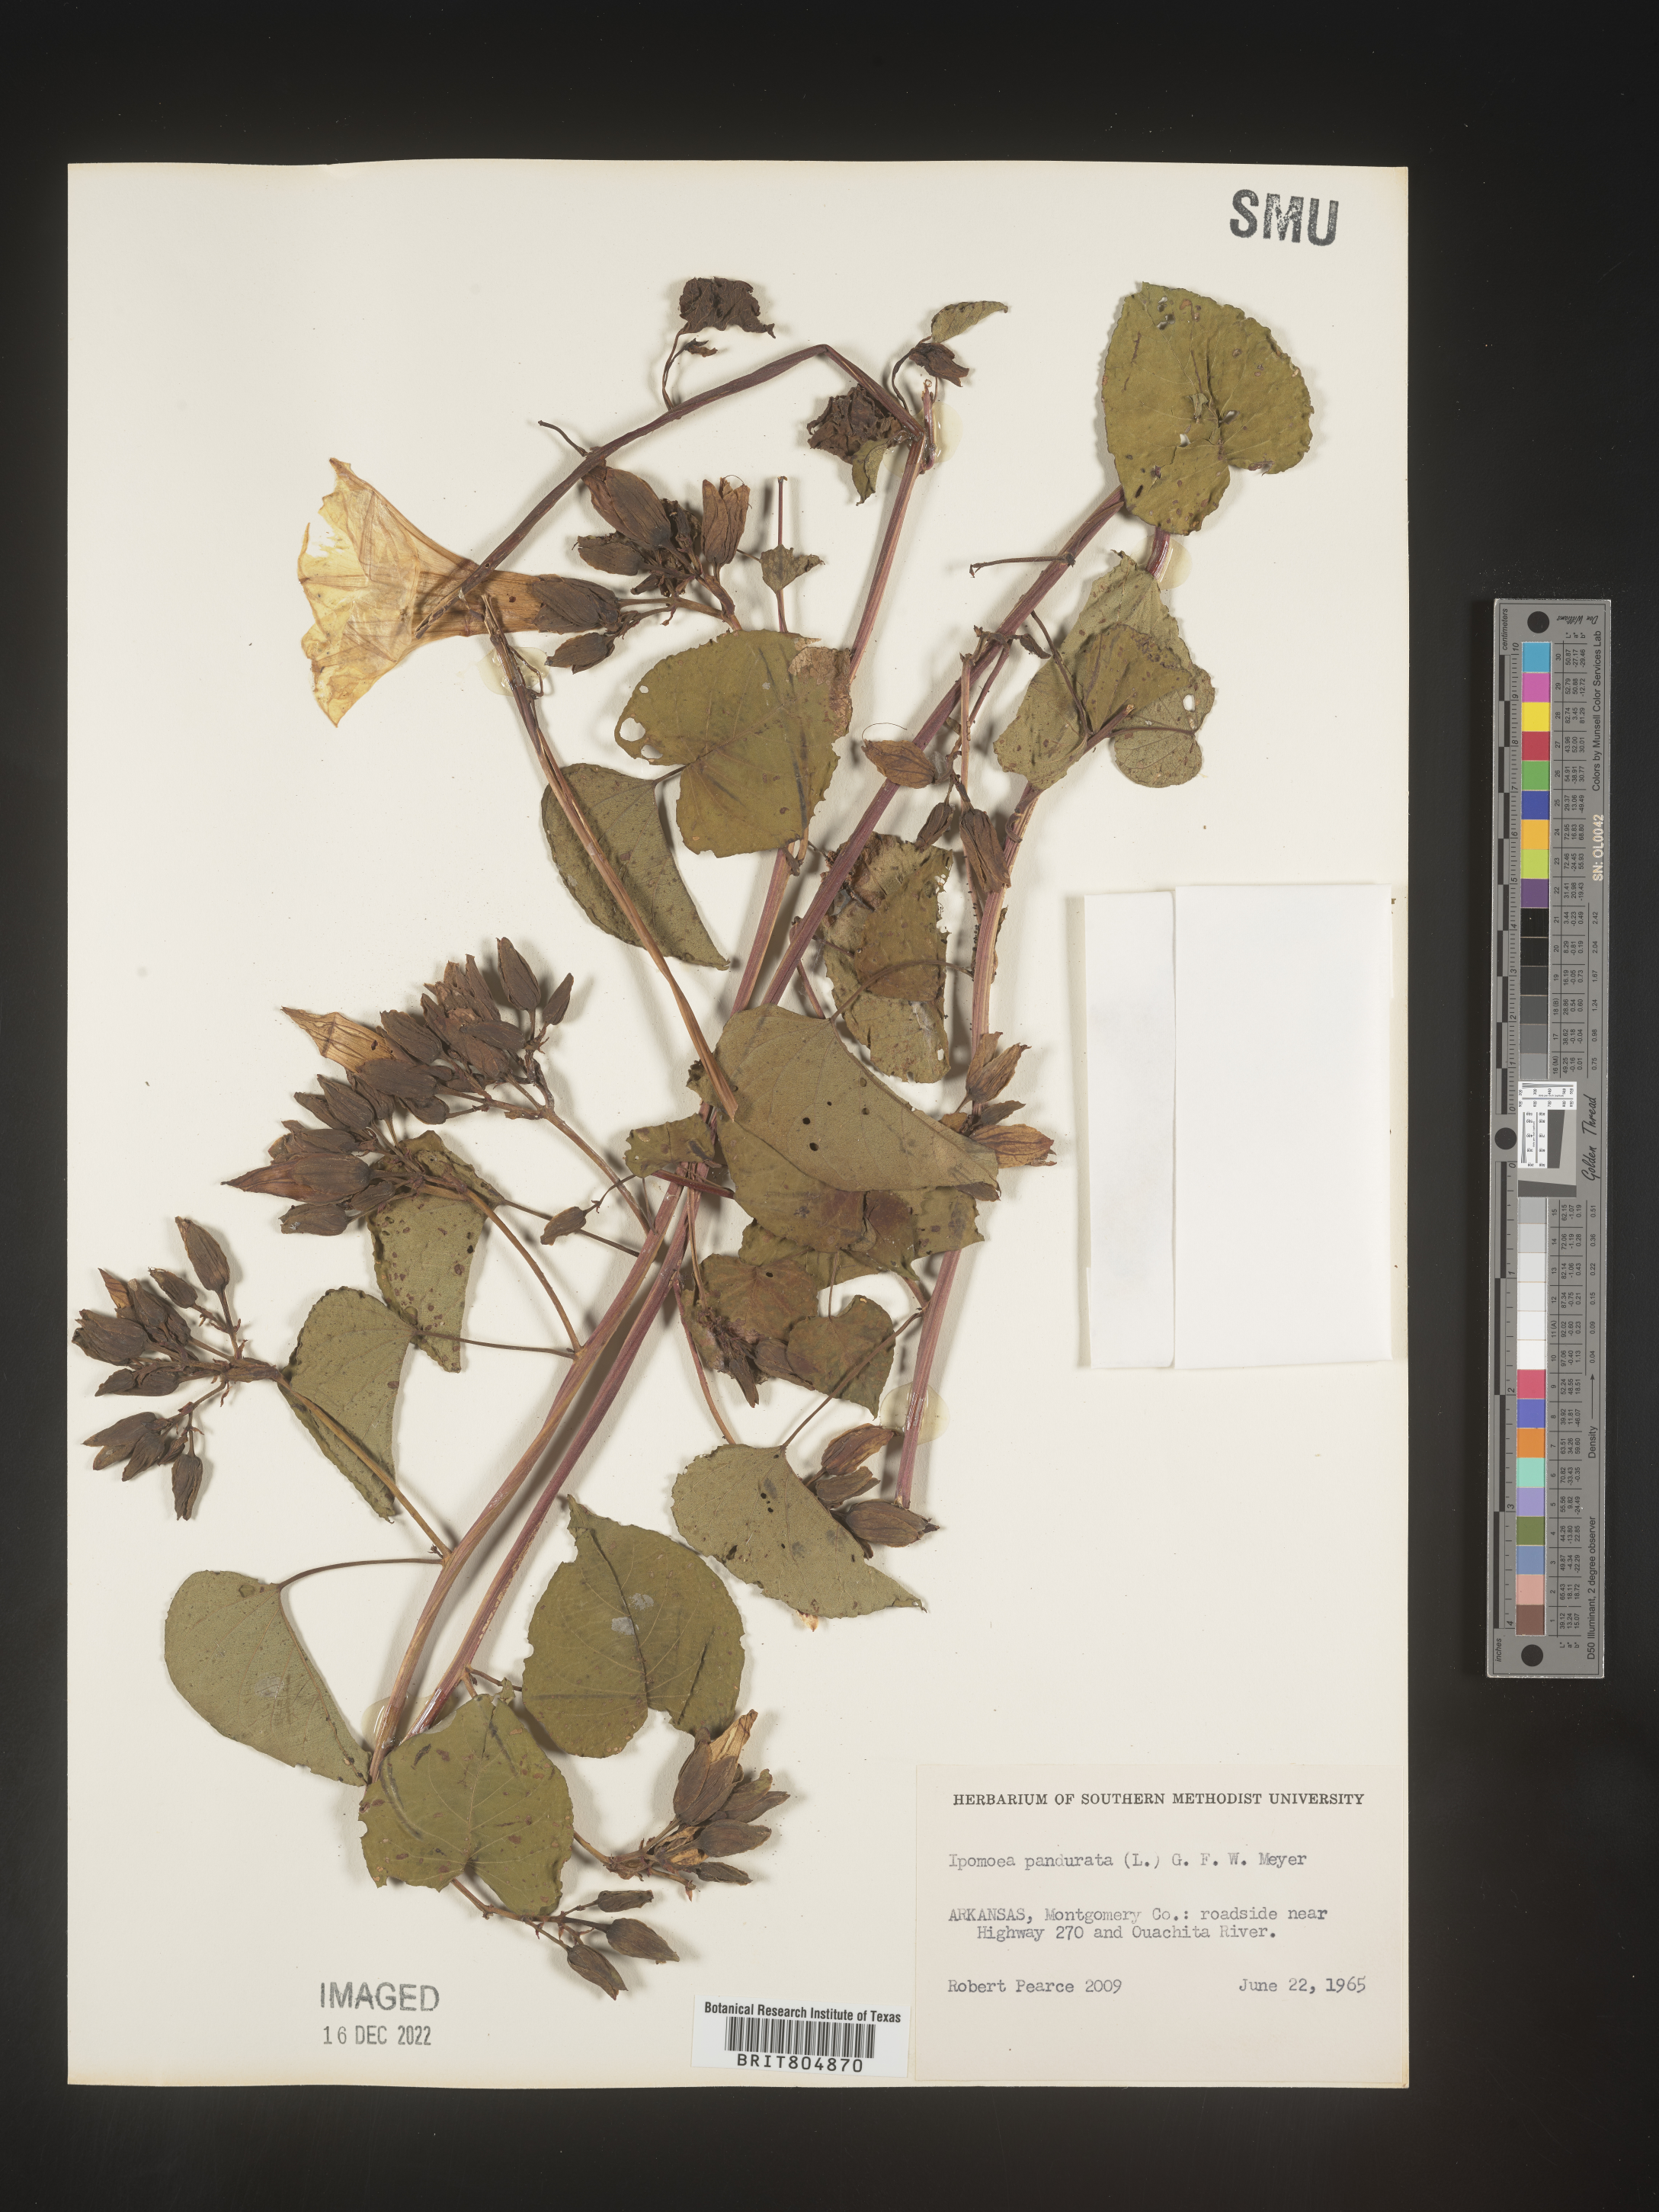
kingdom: Plantae
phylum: Tracheophyta
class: Magnoliopsida
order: Solanales
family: Convolvulaceae
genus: Ipomoea
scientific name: Ipomoea pandurata
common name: Man-of-the-earth
